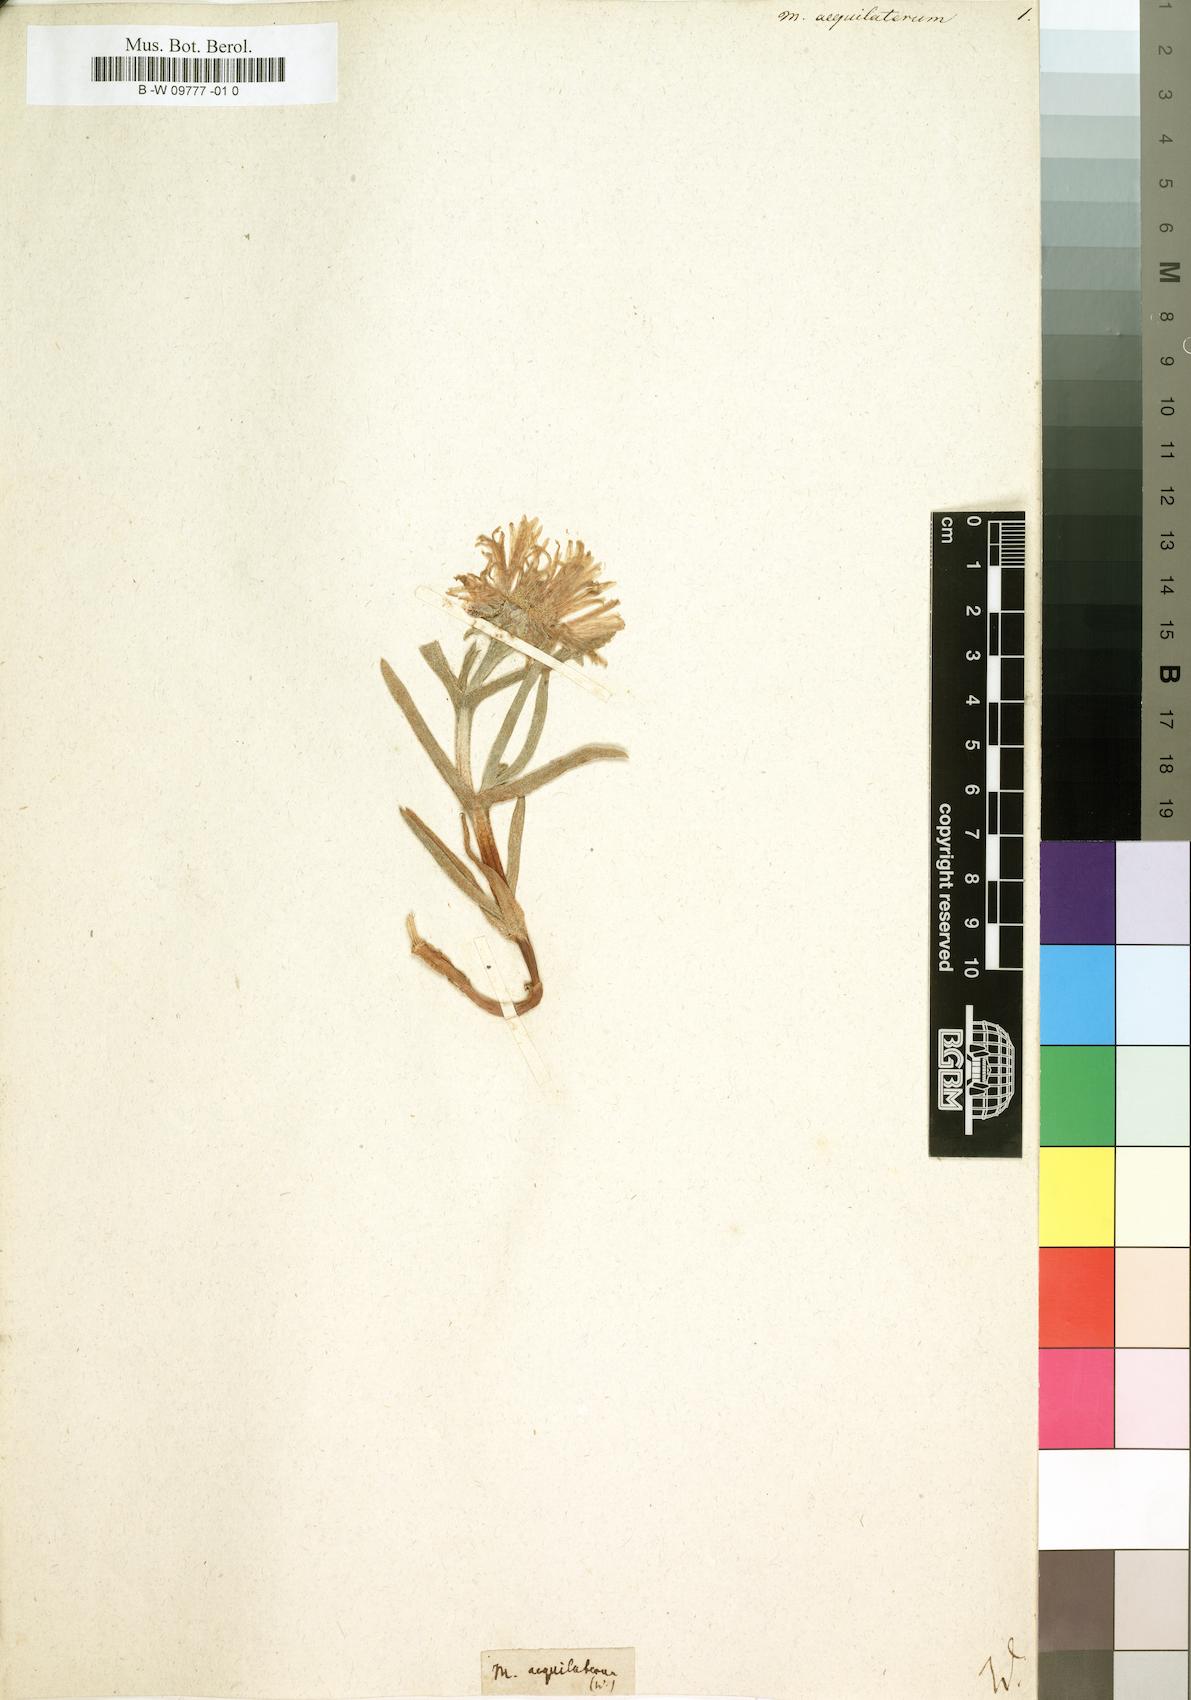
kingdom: Plantae
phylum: Tracheophyta
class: Magnoliopsida
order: Caryophyllales
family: Aizoaceae
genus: Carpobrotus
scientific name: Carpobrotus aequilaterus
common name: Angled pigface
